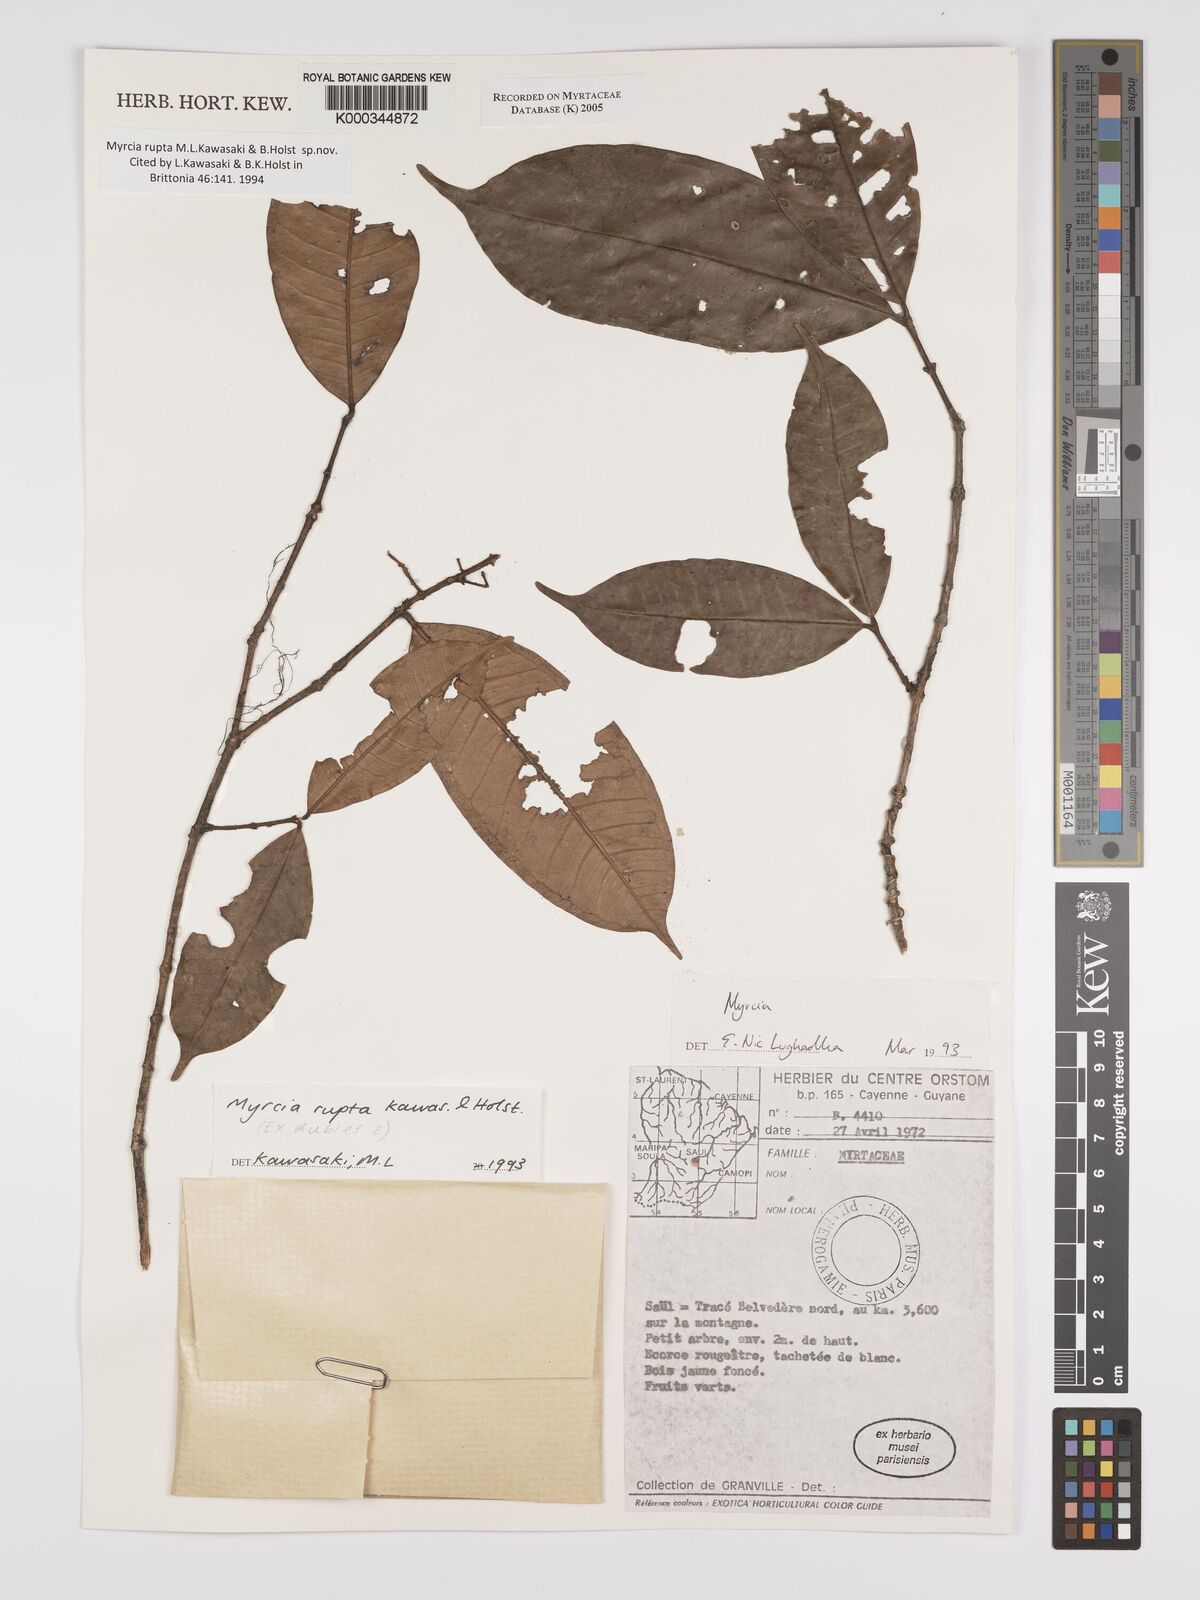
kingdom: Plantae
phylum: Tracheophyta
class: Magnoliopsida
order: Myrtales
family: Myrtaceae
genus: Myrcia
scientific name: Myrcia rupta
